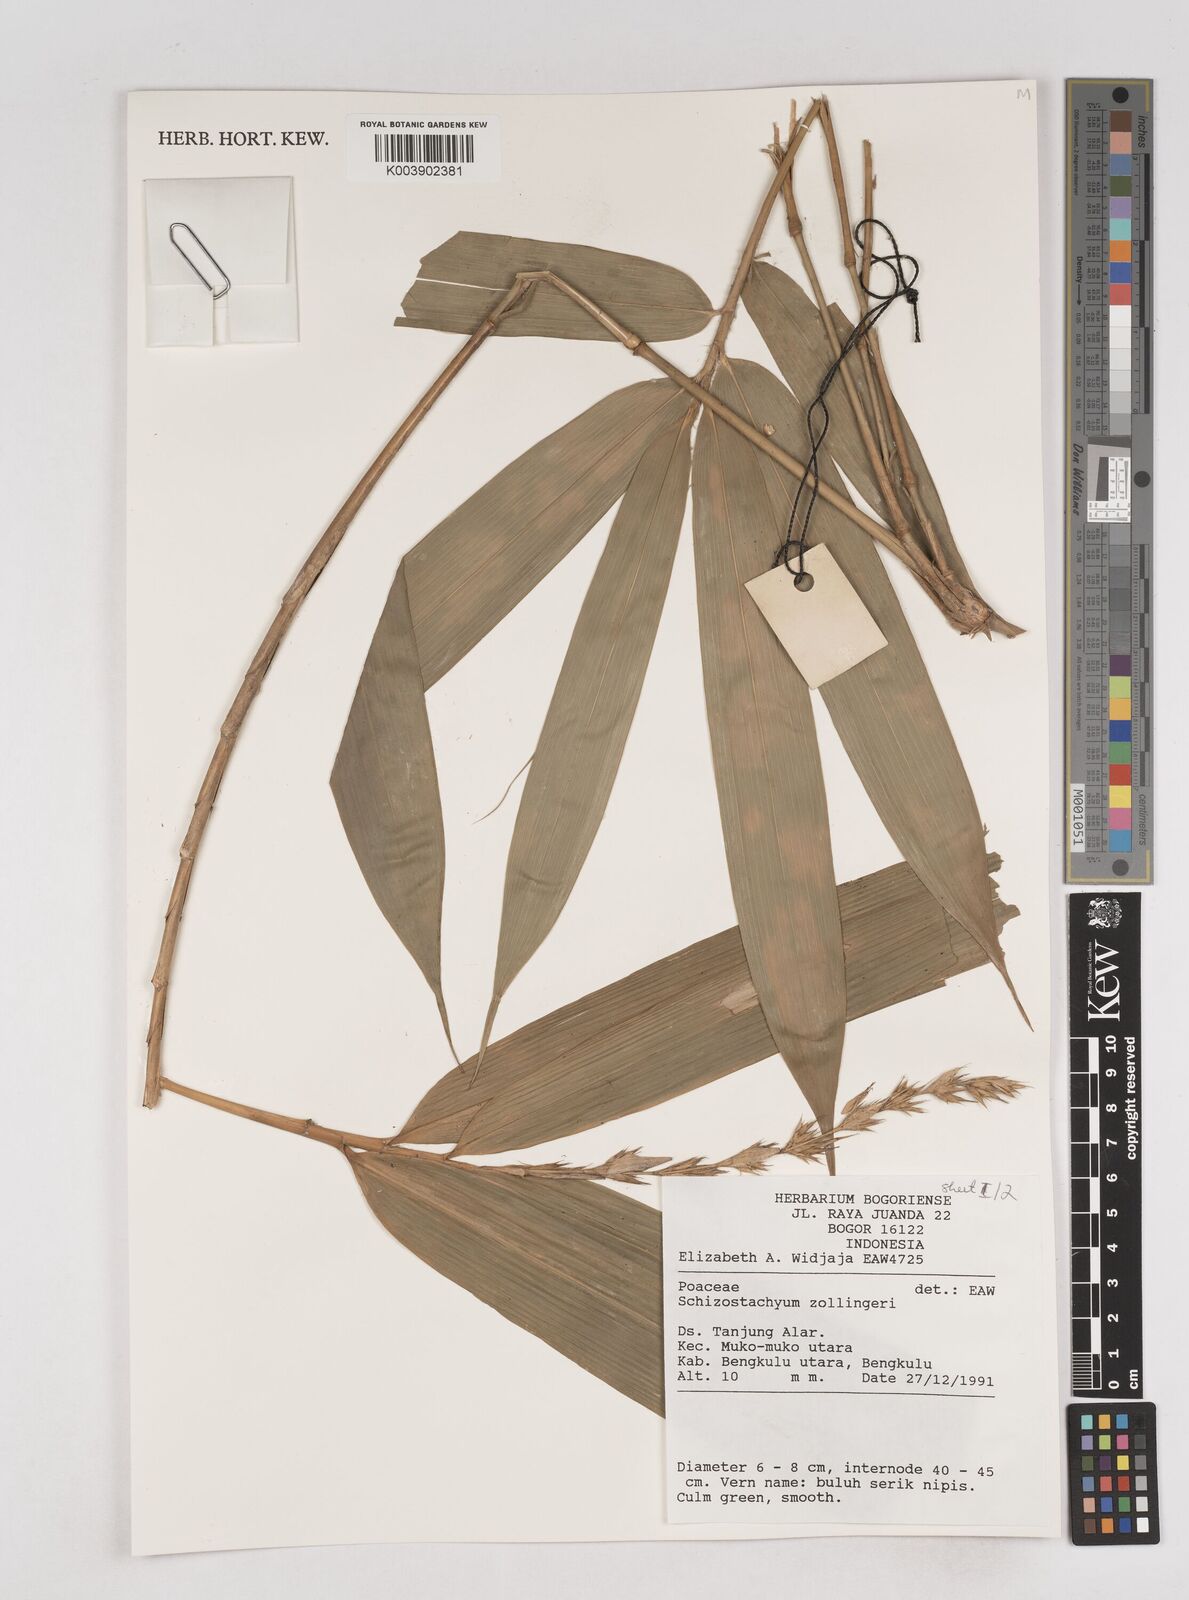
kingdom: Plantae
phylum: Tracheophyta
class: Liliopsida
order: Poales
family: Poaceae
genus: Schizostachyum
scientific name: Schizostachyum zollingeri
